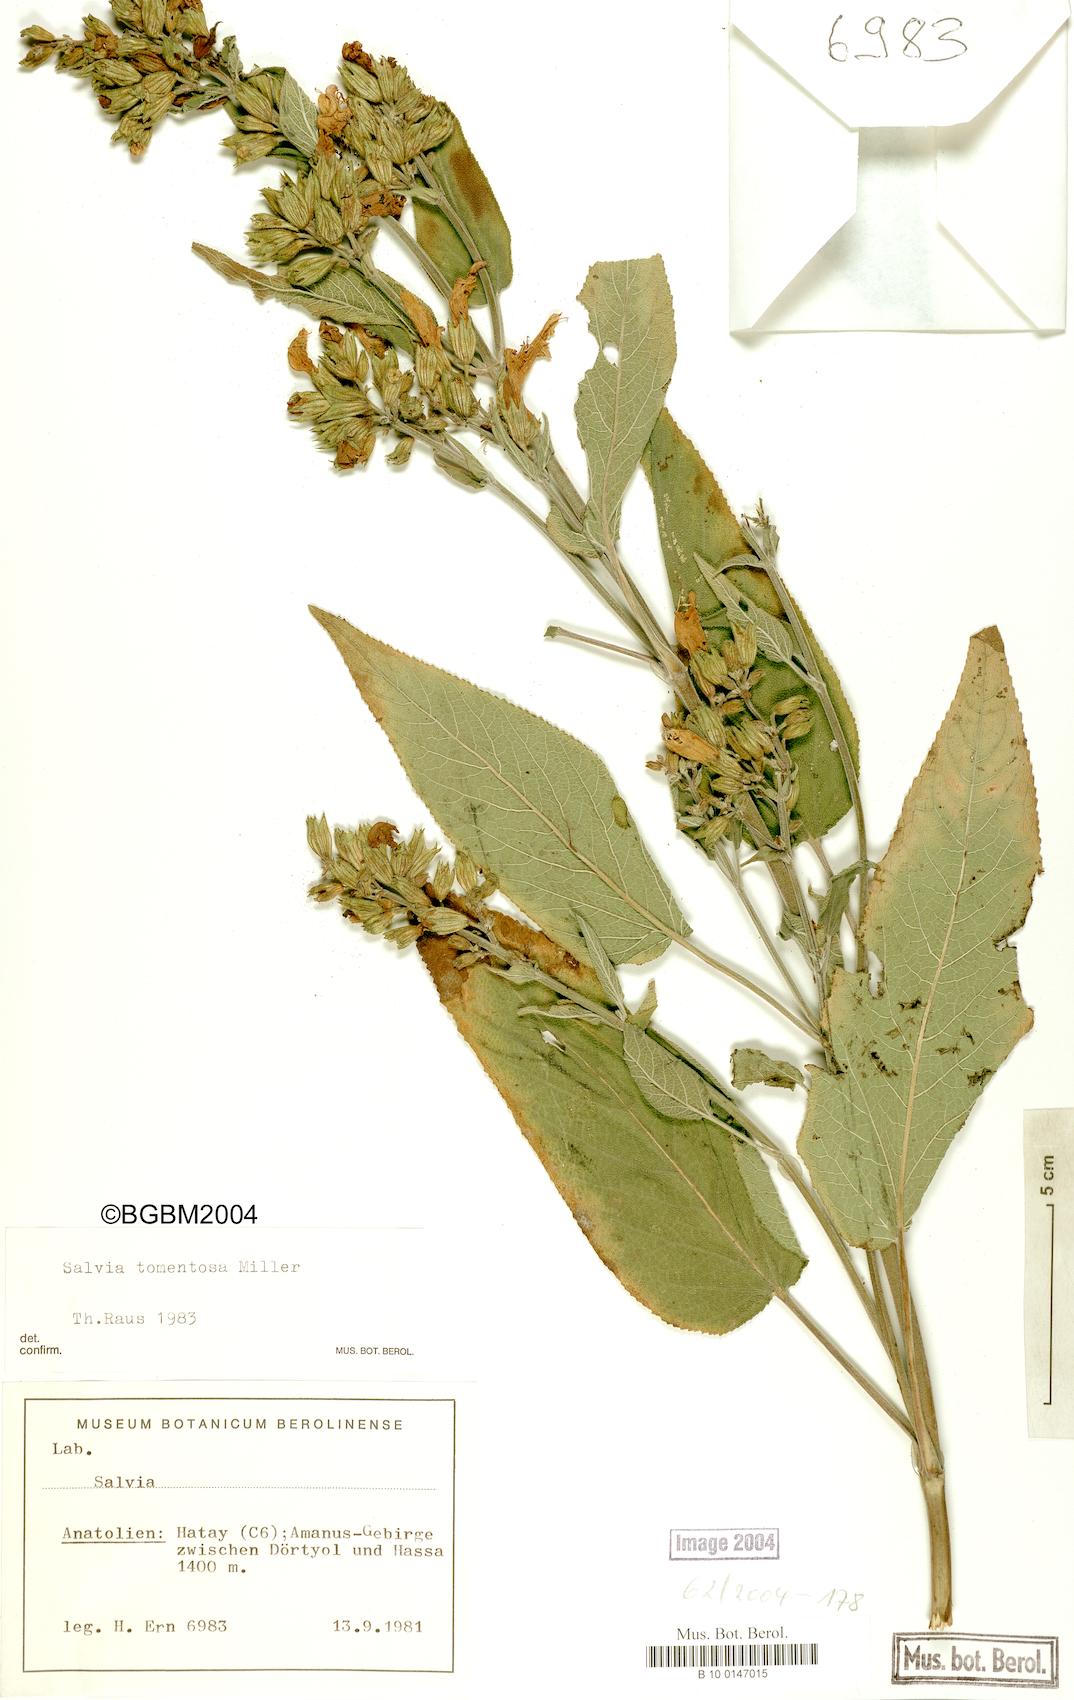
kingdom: Plantae
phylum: Tracheophyta
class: Magnoliopsida
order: Lamiales
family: Lamiaceae
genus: Salvia
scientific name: Salvia tomentosa
